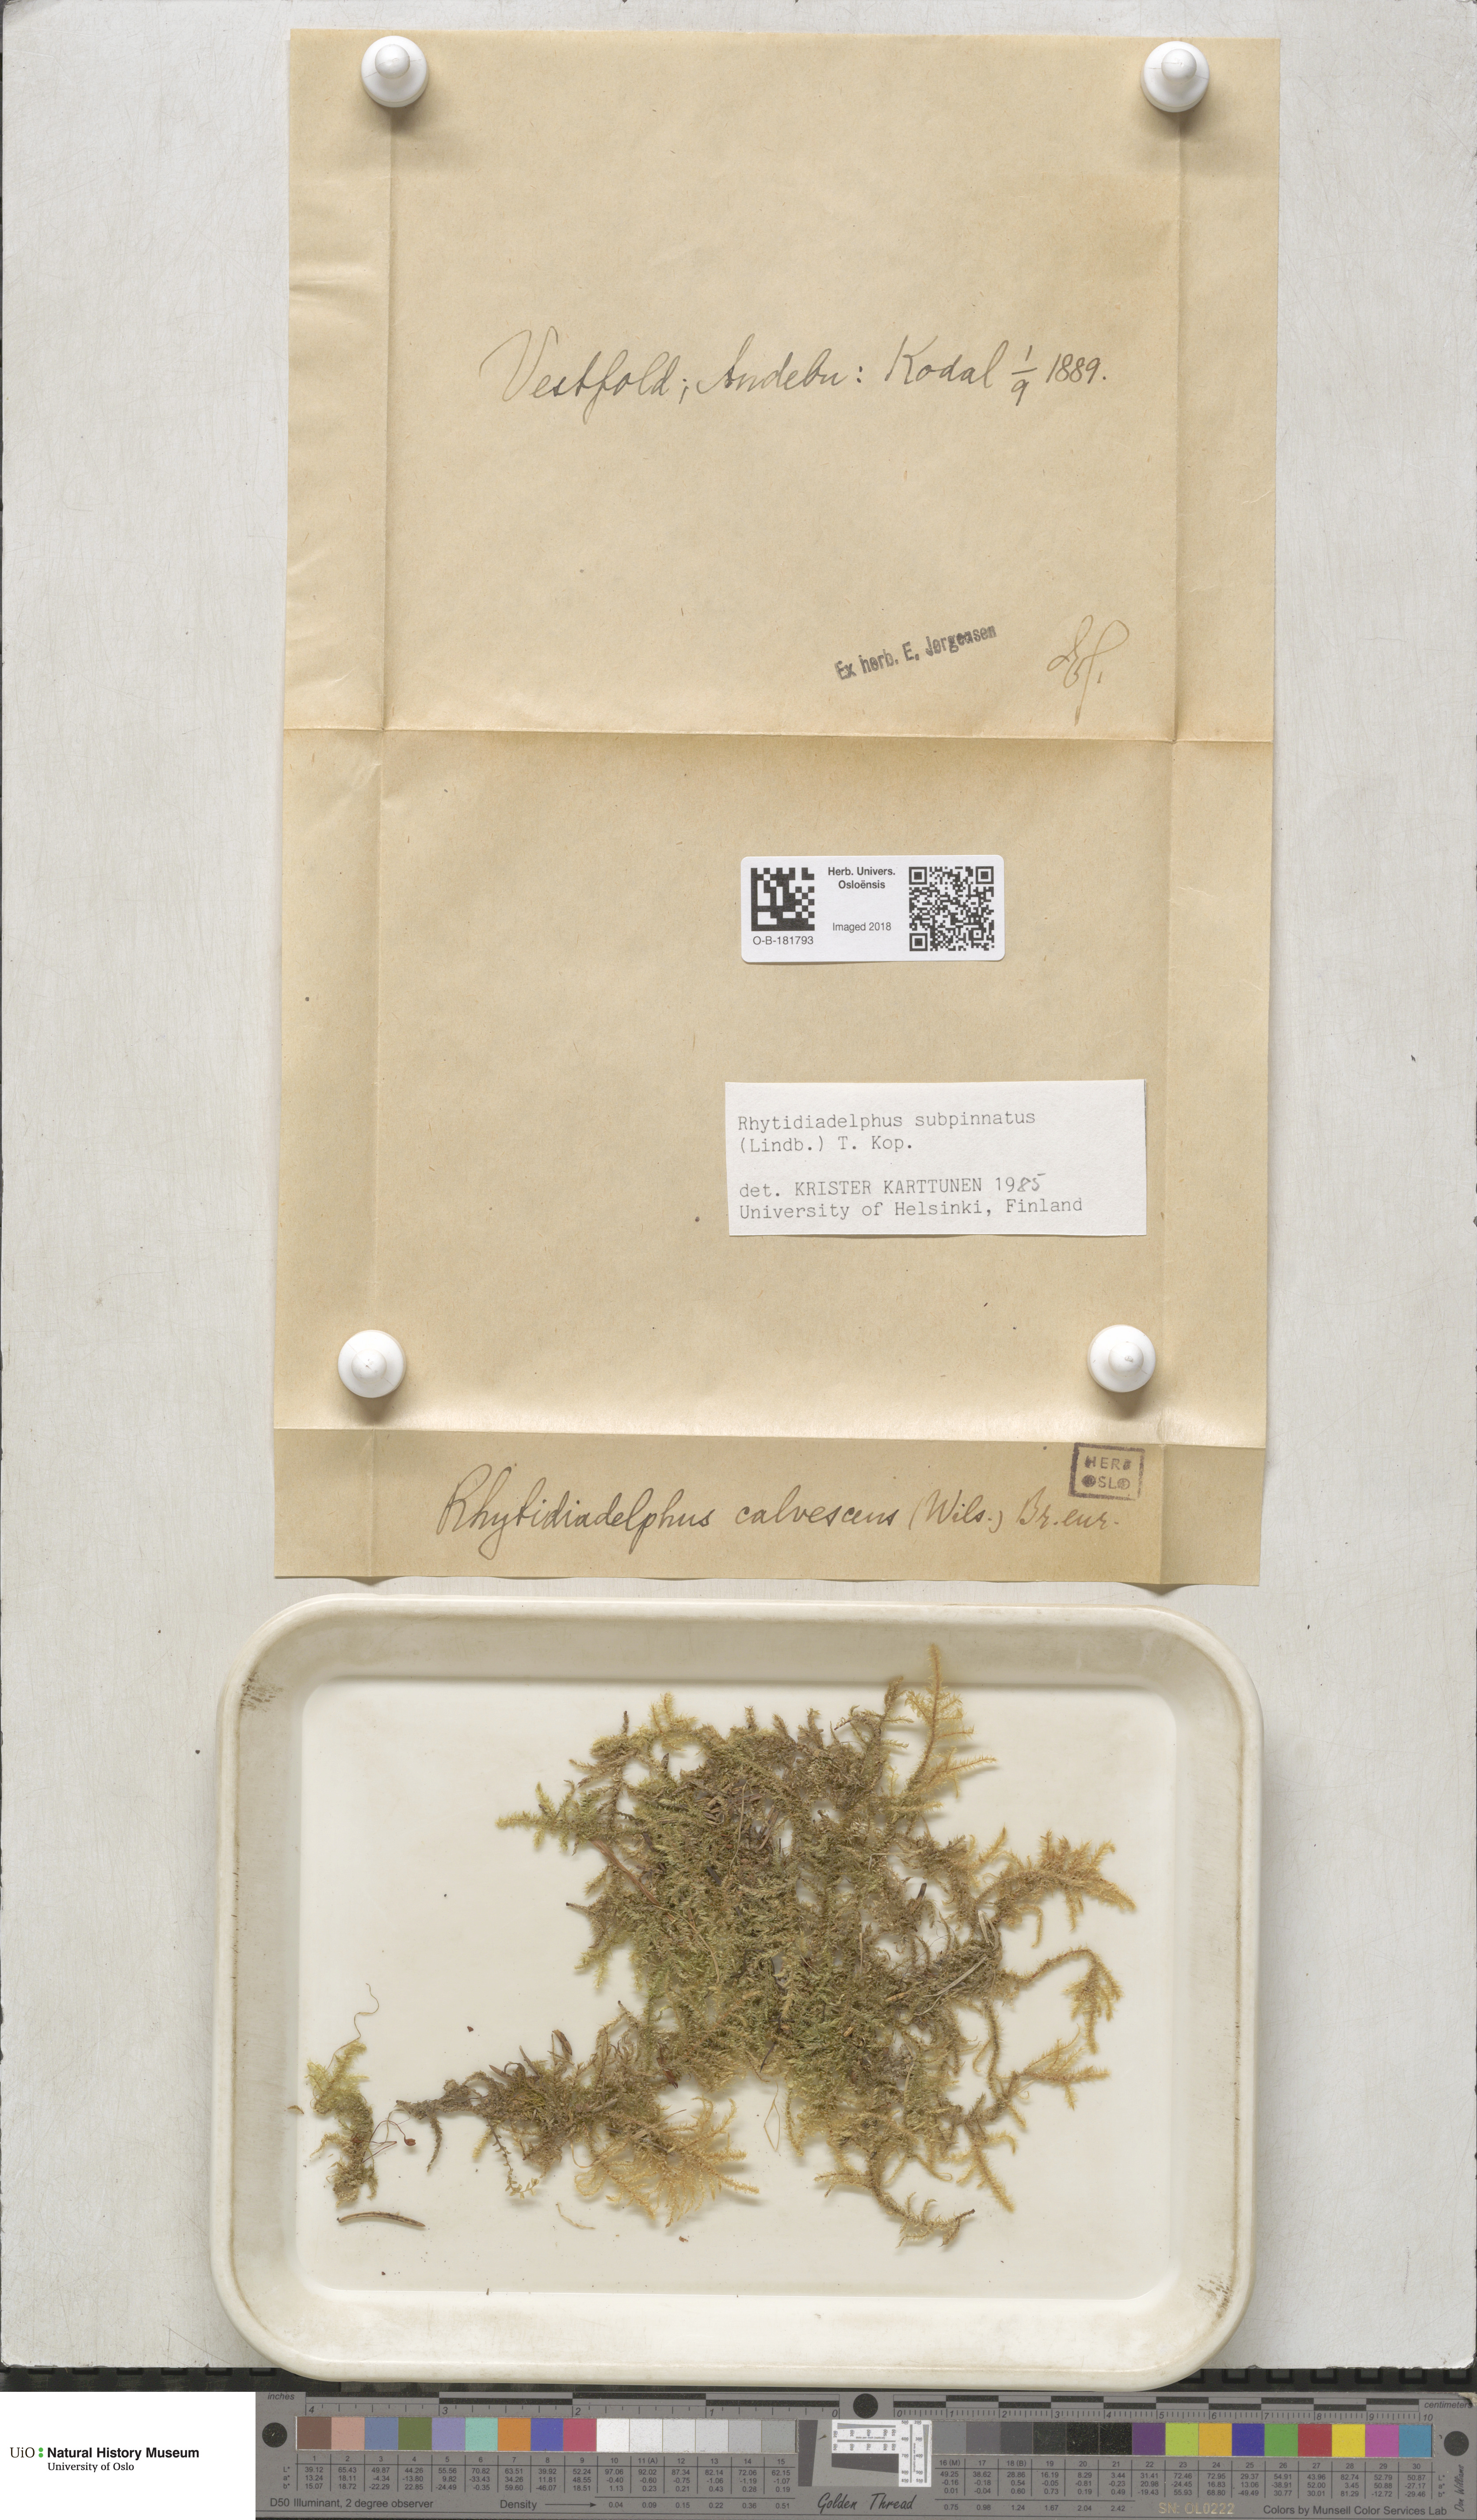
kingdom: Plantae
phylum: Bryophyta
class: Bryopsida
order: Hypnales
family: Hylocomiaceae
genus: Rhytidiadelphus
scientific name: Rhytidiadelphus subpinnatus
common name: Subpinnate gooseneck moss
